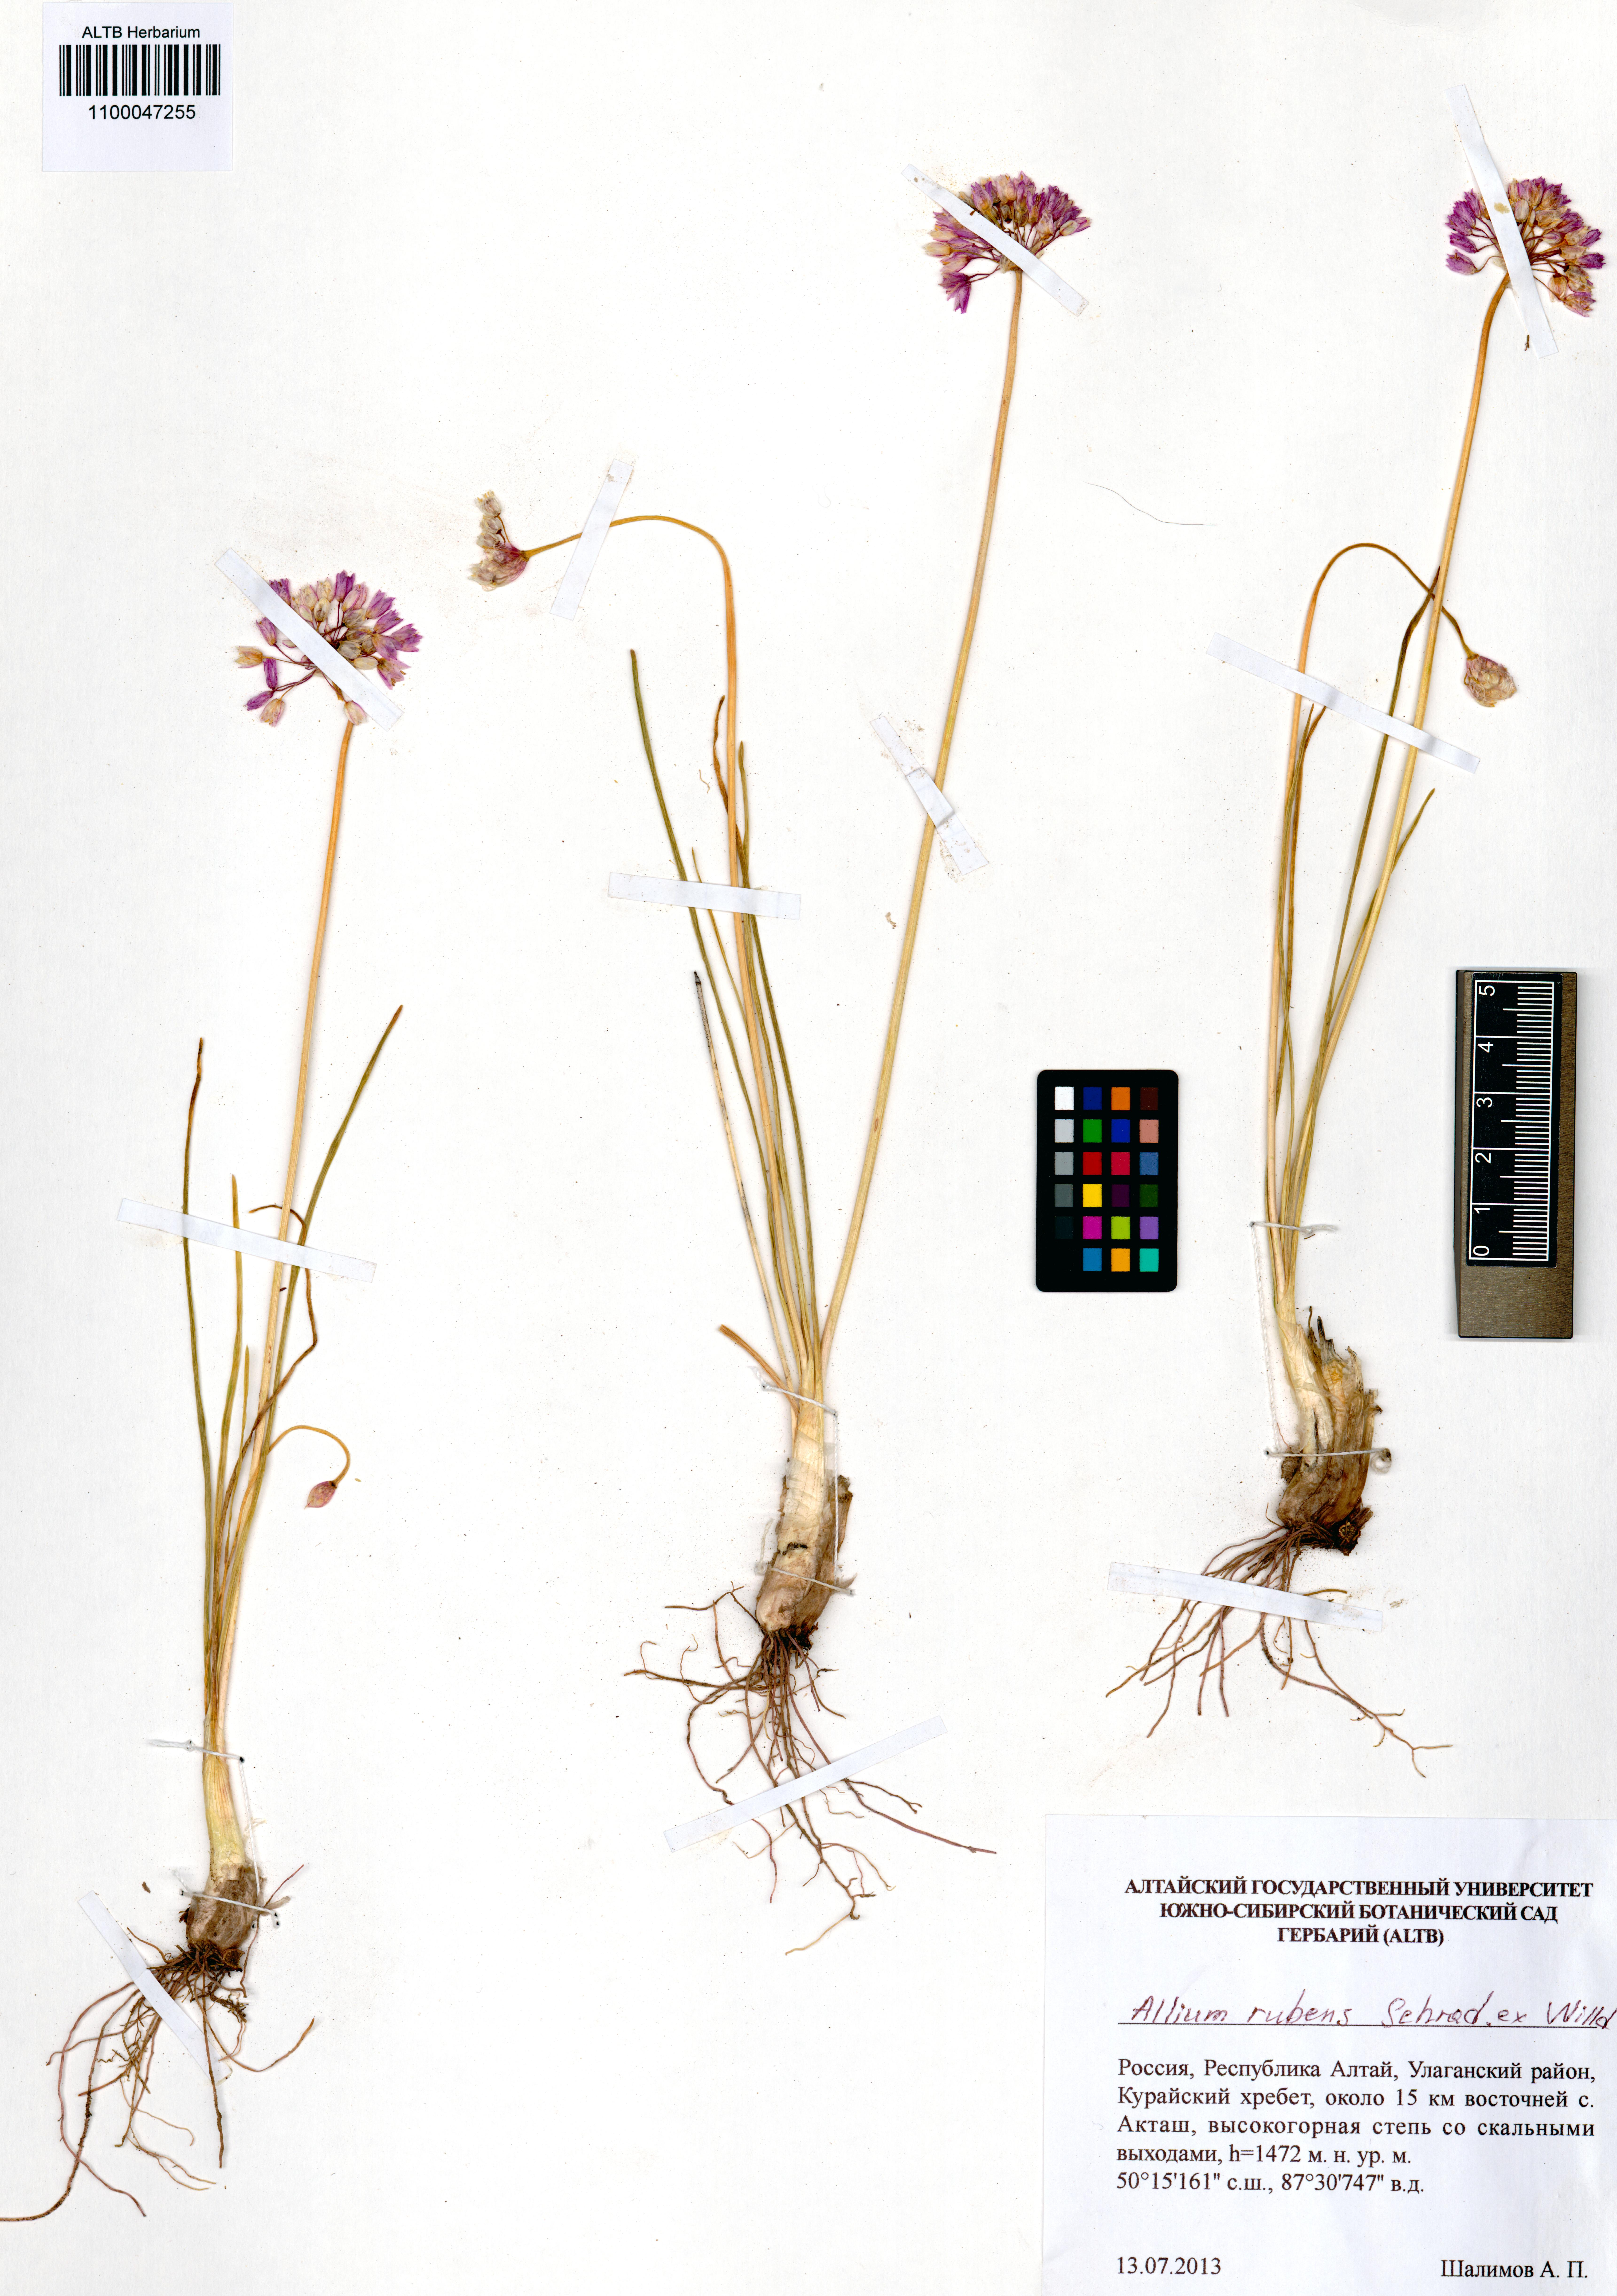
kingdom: Plantae
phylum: Tracheophyta
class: Liliopsida
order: Asparagales
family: Amaryllidaceae
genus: Allium
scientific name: Allium rubens
